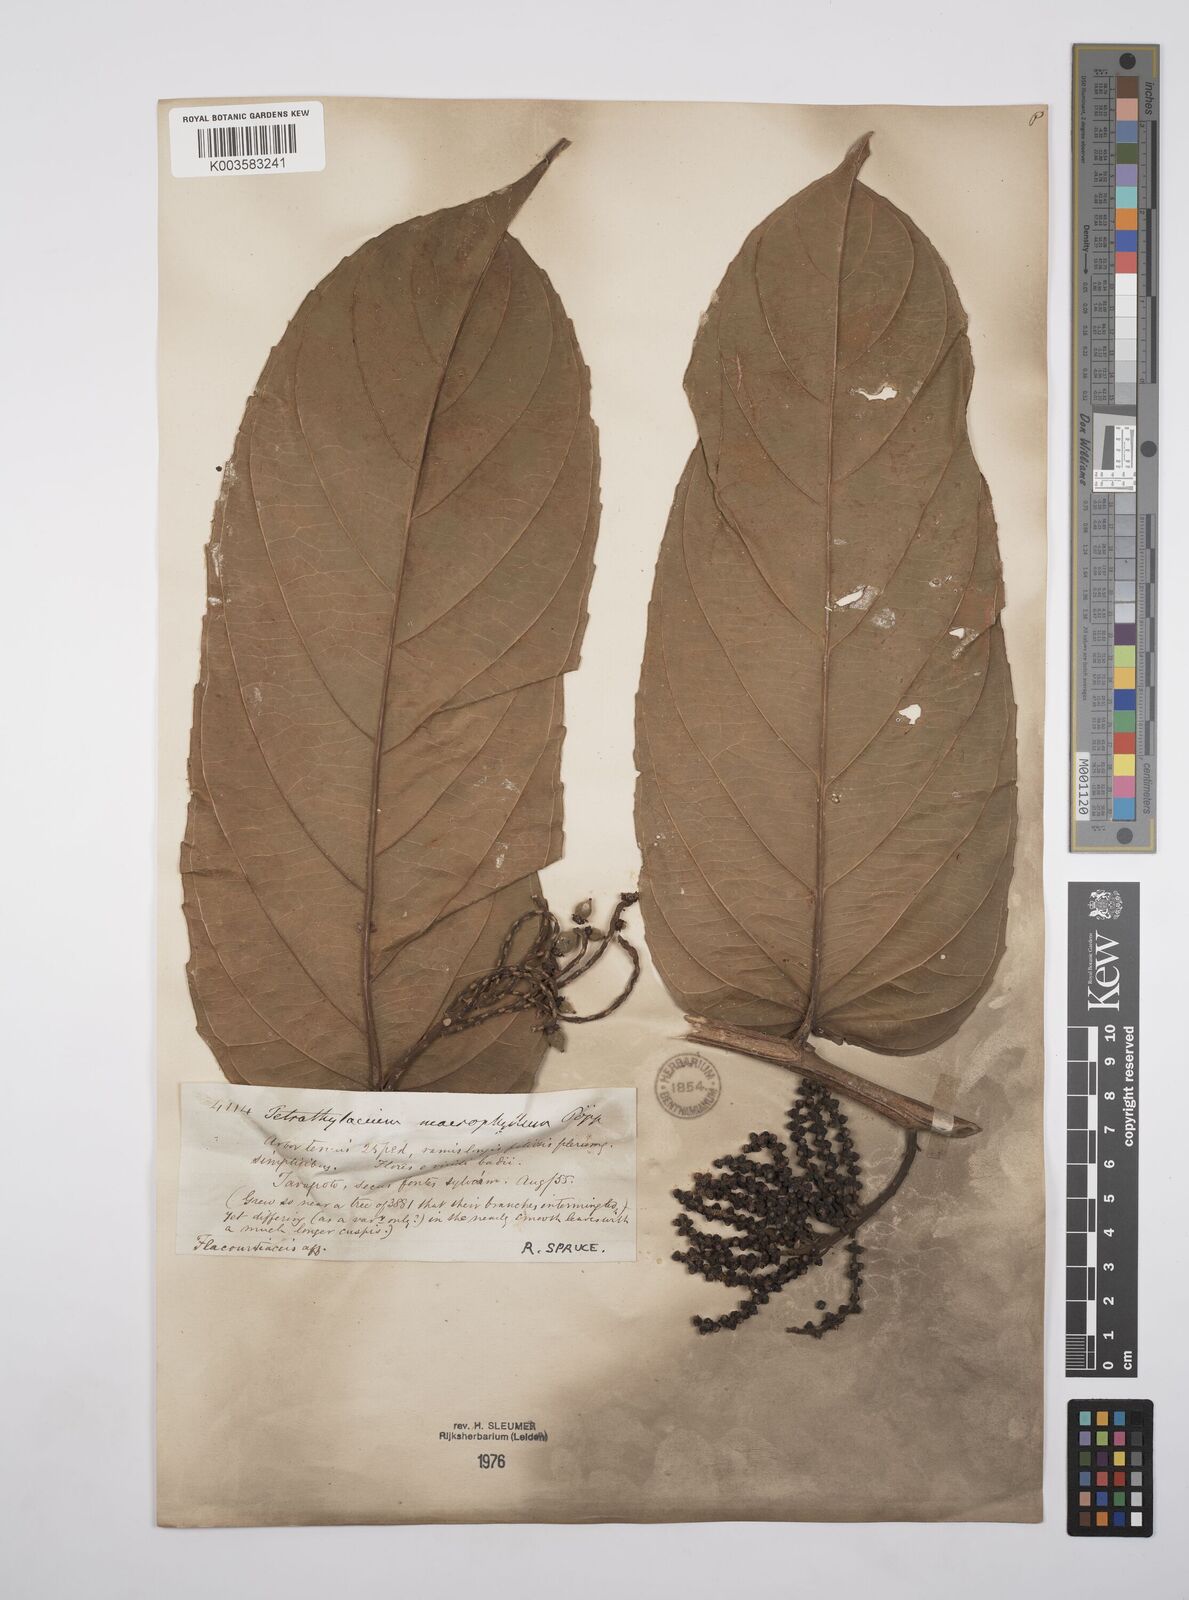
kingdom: Plantae
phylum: Tracheophyta
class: Magnoliopsida
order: Malpighiales
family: Salicaceae
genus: Tetrathylacium
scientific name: Tetrathylacium macrophyllum
